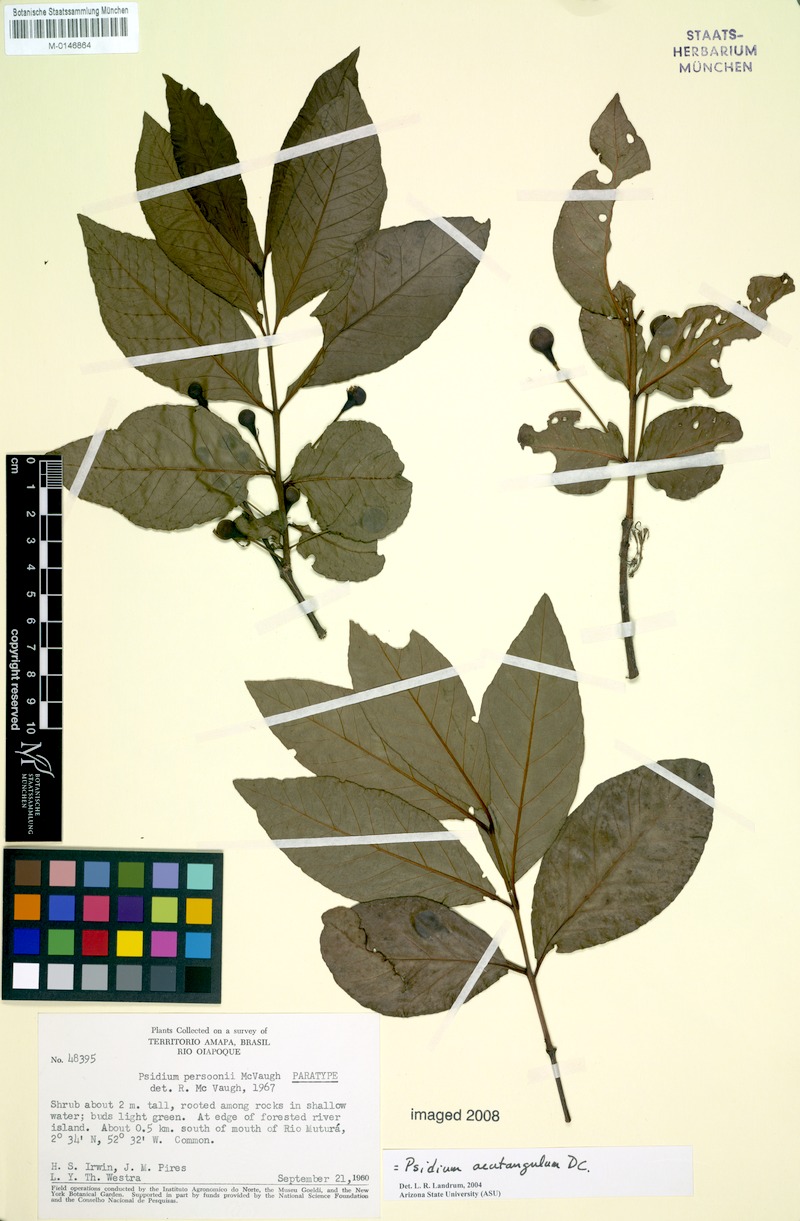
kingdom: Plantae
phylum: Tracheophyta
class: Magnoliopsida
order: Myrtales
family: Myrtaceae
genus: Psidium
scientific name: Psidium acutangulum
